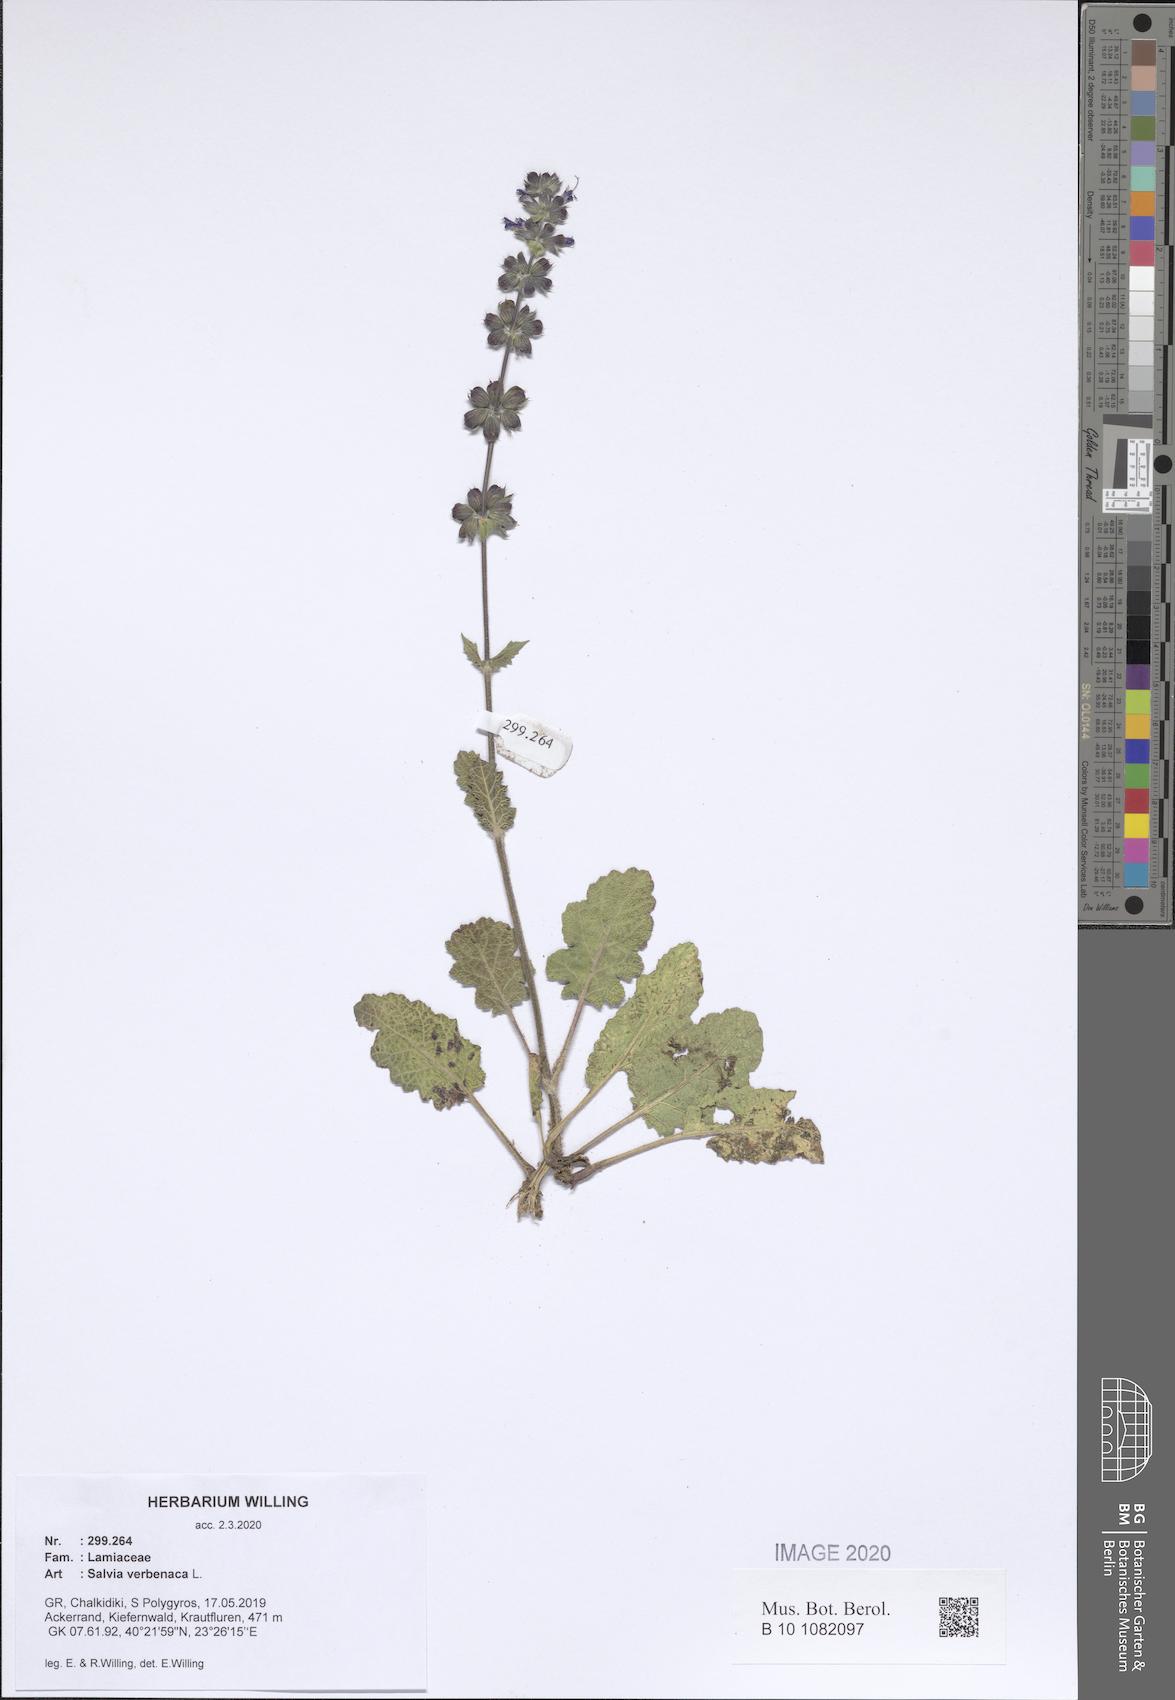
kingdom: Plantae
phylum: Tracheophyta
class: Magnoliopsida
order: Lamiales
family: Lamiaceae
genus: Salvia
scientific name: Salvia verbenaca
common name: Wild clary
